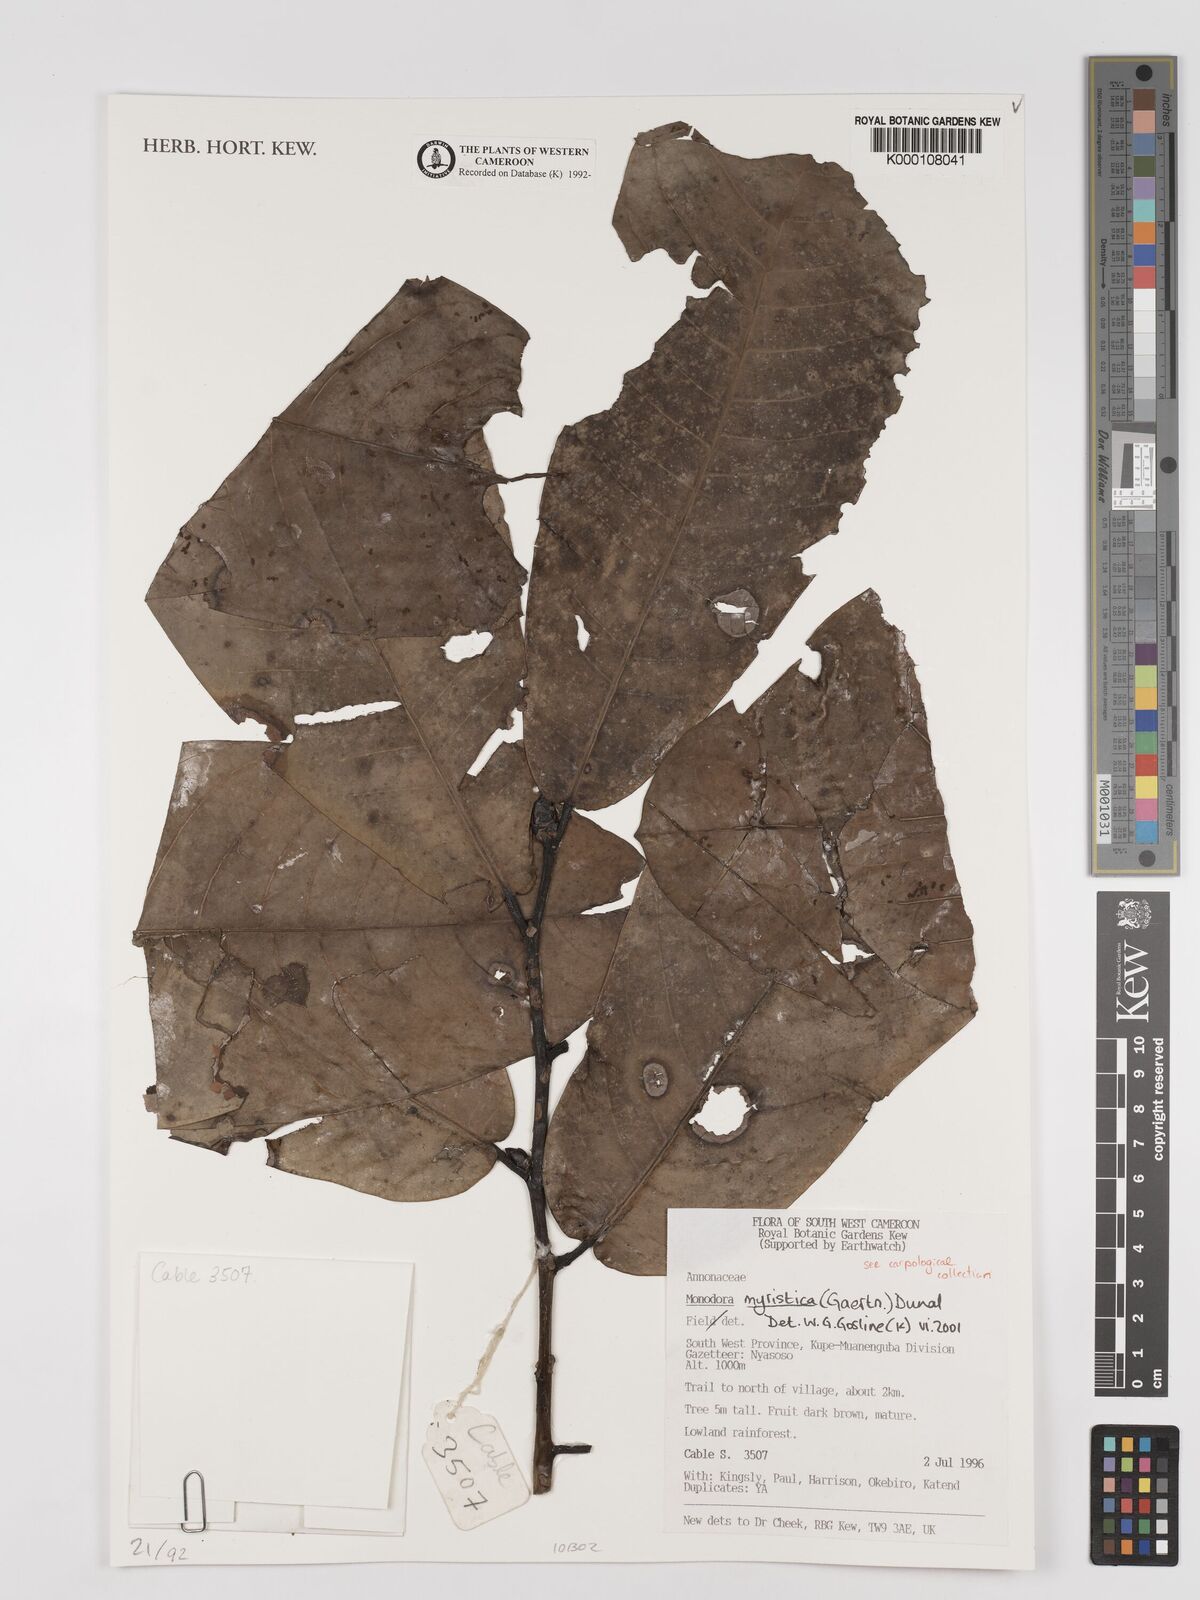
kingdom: Plantae
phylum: Tracheophyta
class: Magnoliopsida
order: Magnoliales
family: Annonaceae
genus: Monodora
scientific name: Monodora myristica
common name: African nutmeg
